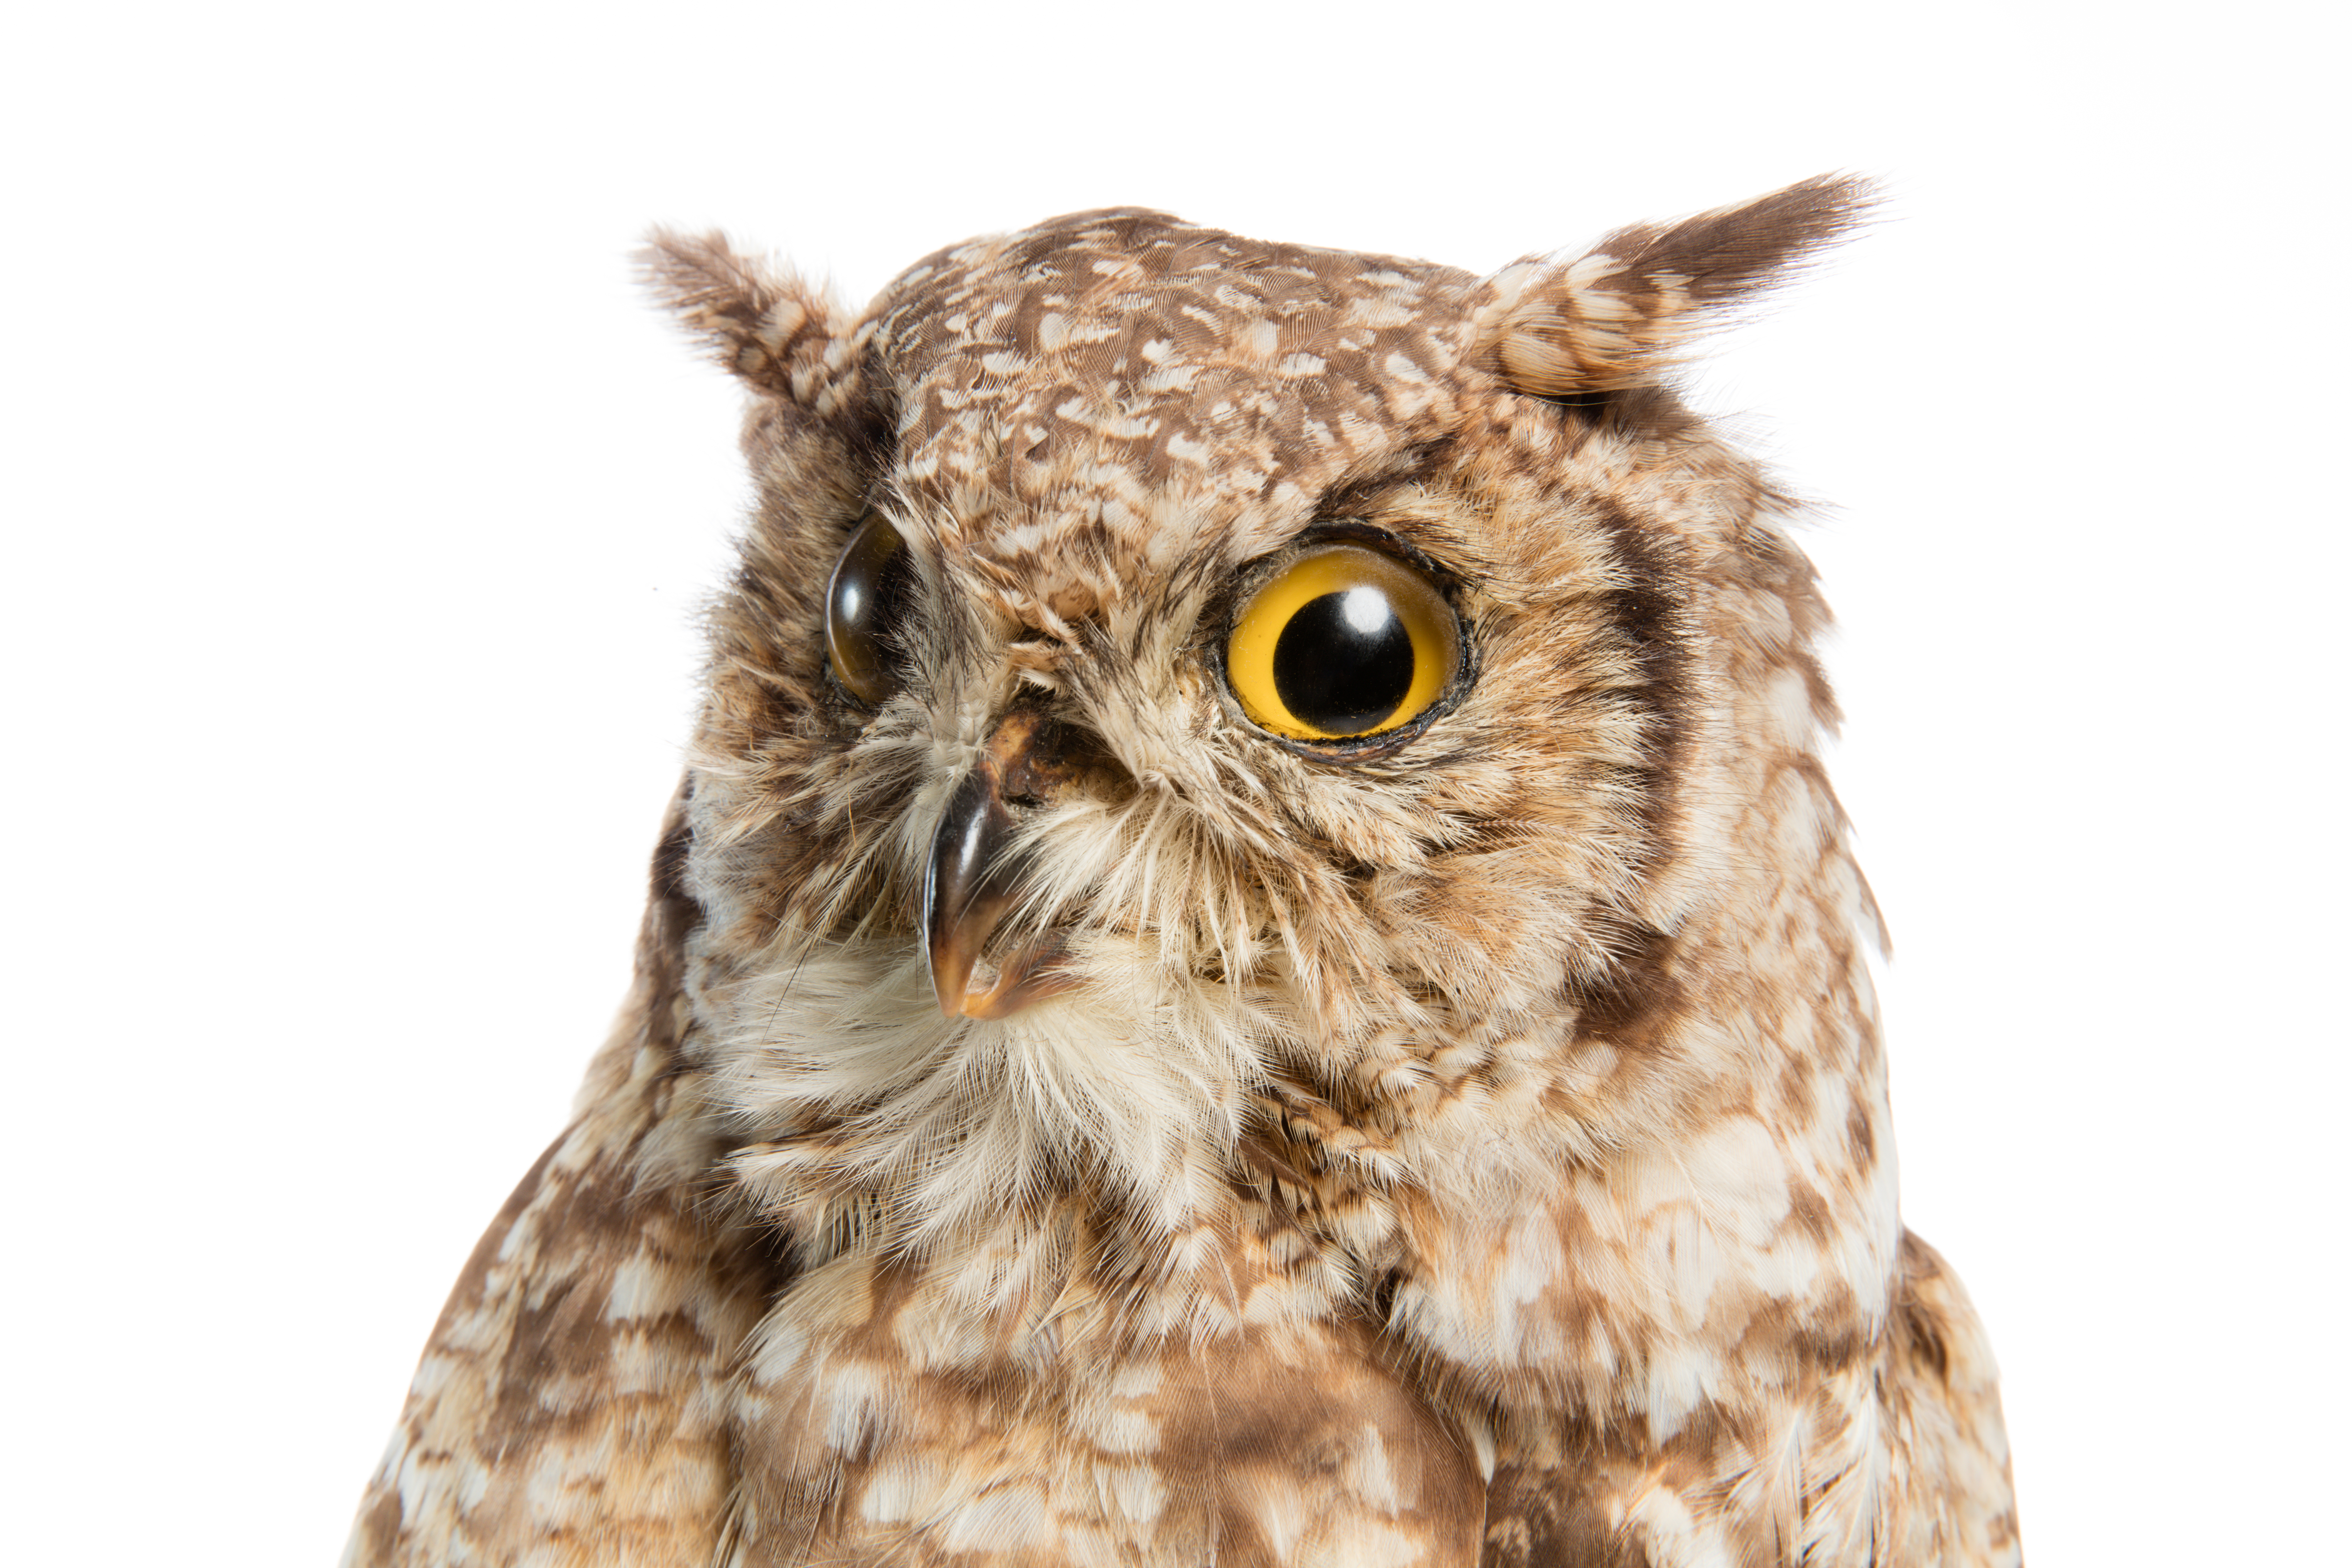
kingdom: Animalia
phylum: Chordata
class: Aves
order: Strigiformes
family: Strigidae
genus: Asio
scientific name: Asio capensis
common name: Marsh owl
